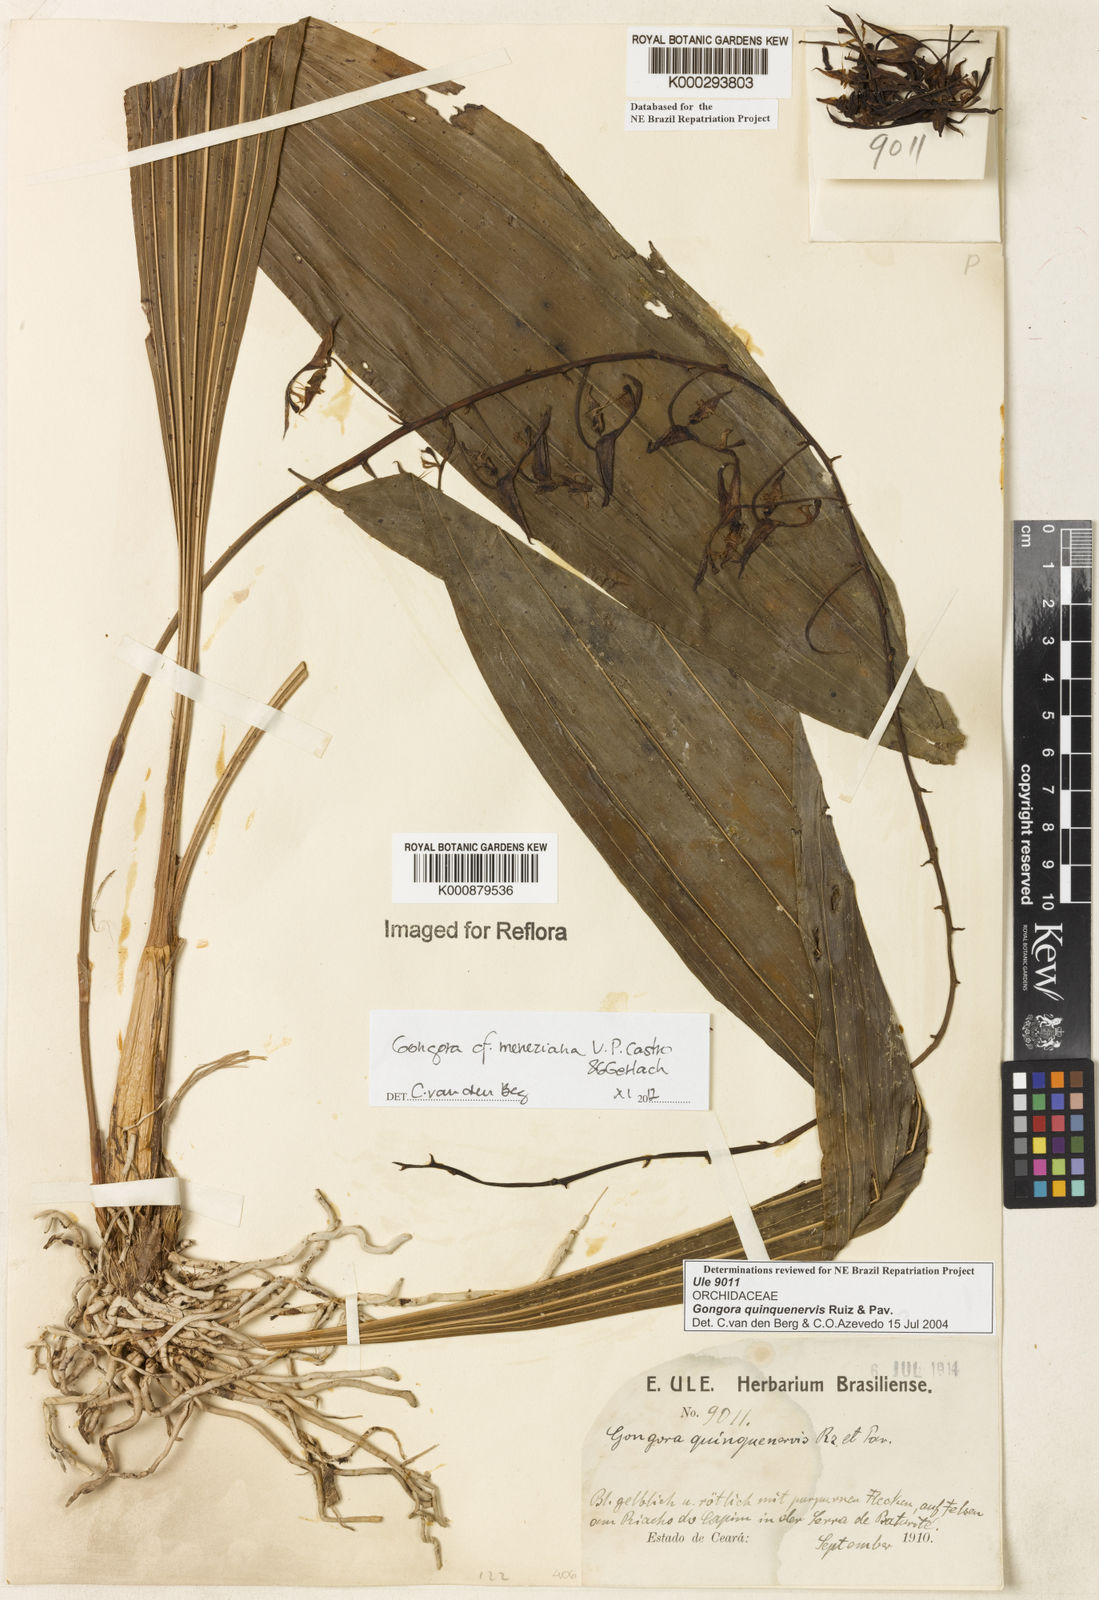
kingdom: Plantae
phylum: Tracheophyta
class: Liliopsida
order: Asparagales
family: Orchidaceae
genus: Gongora
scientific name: Gongora quinquenervis
